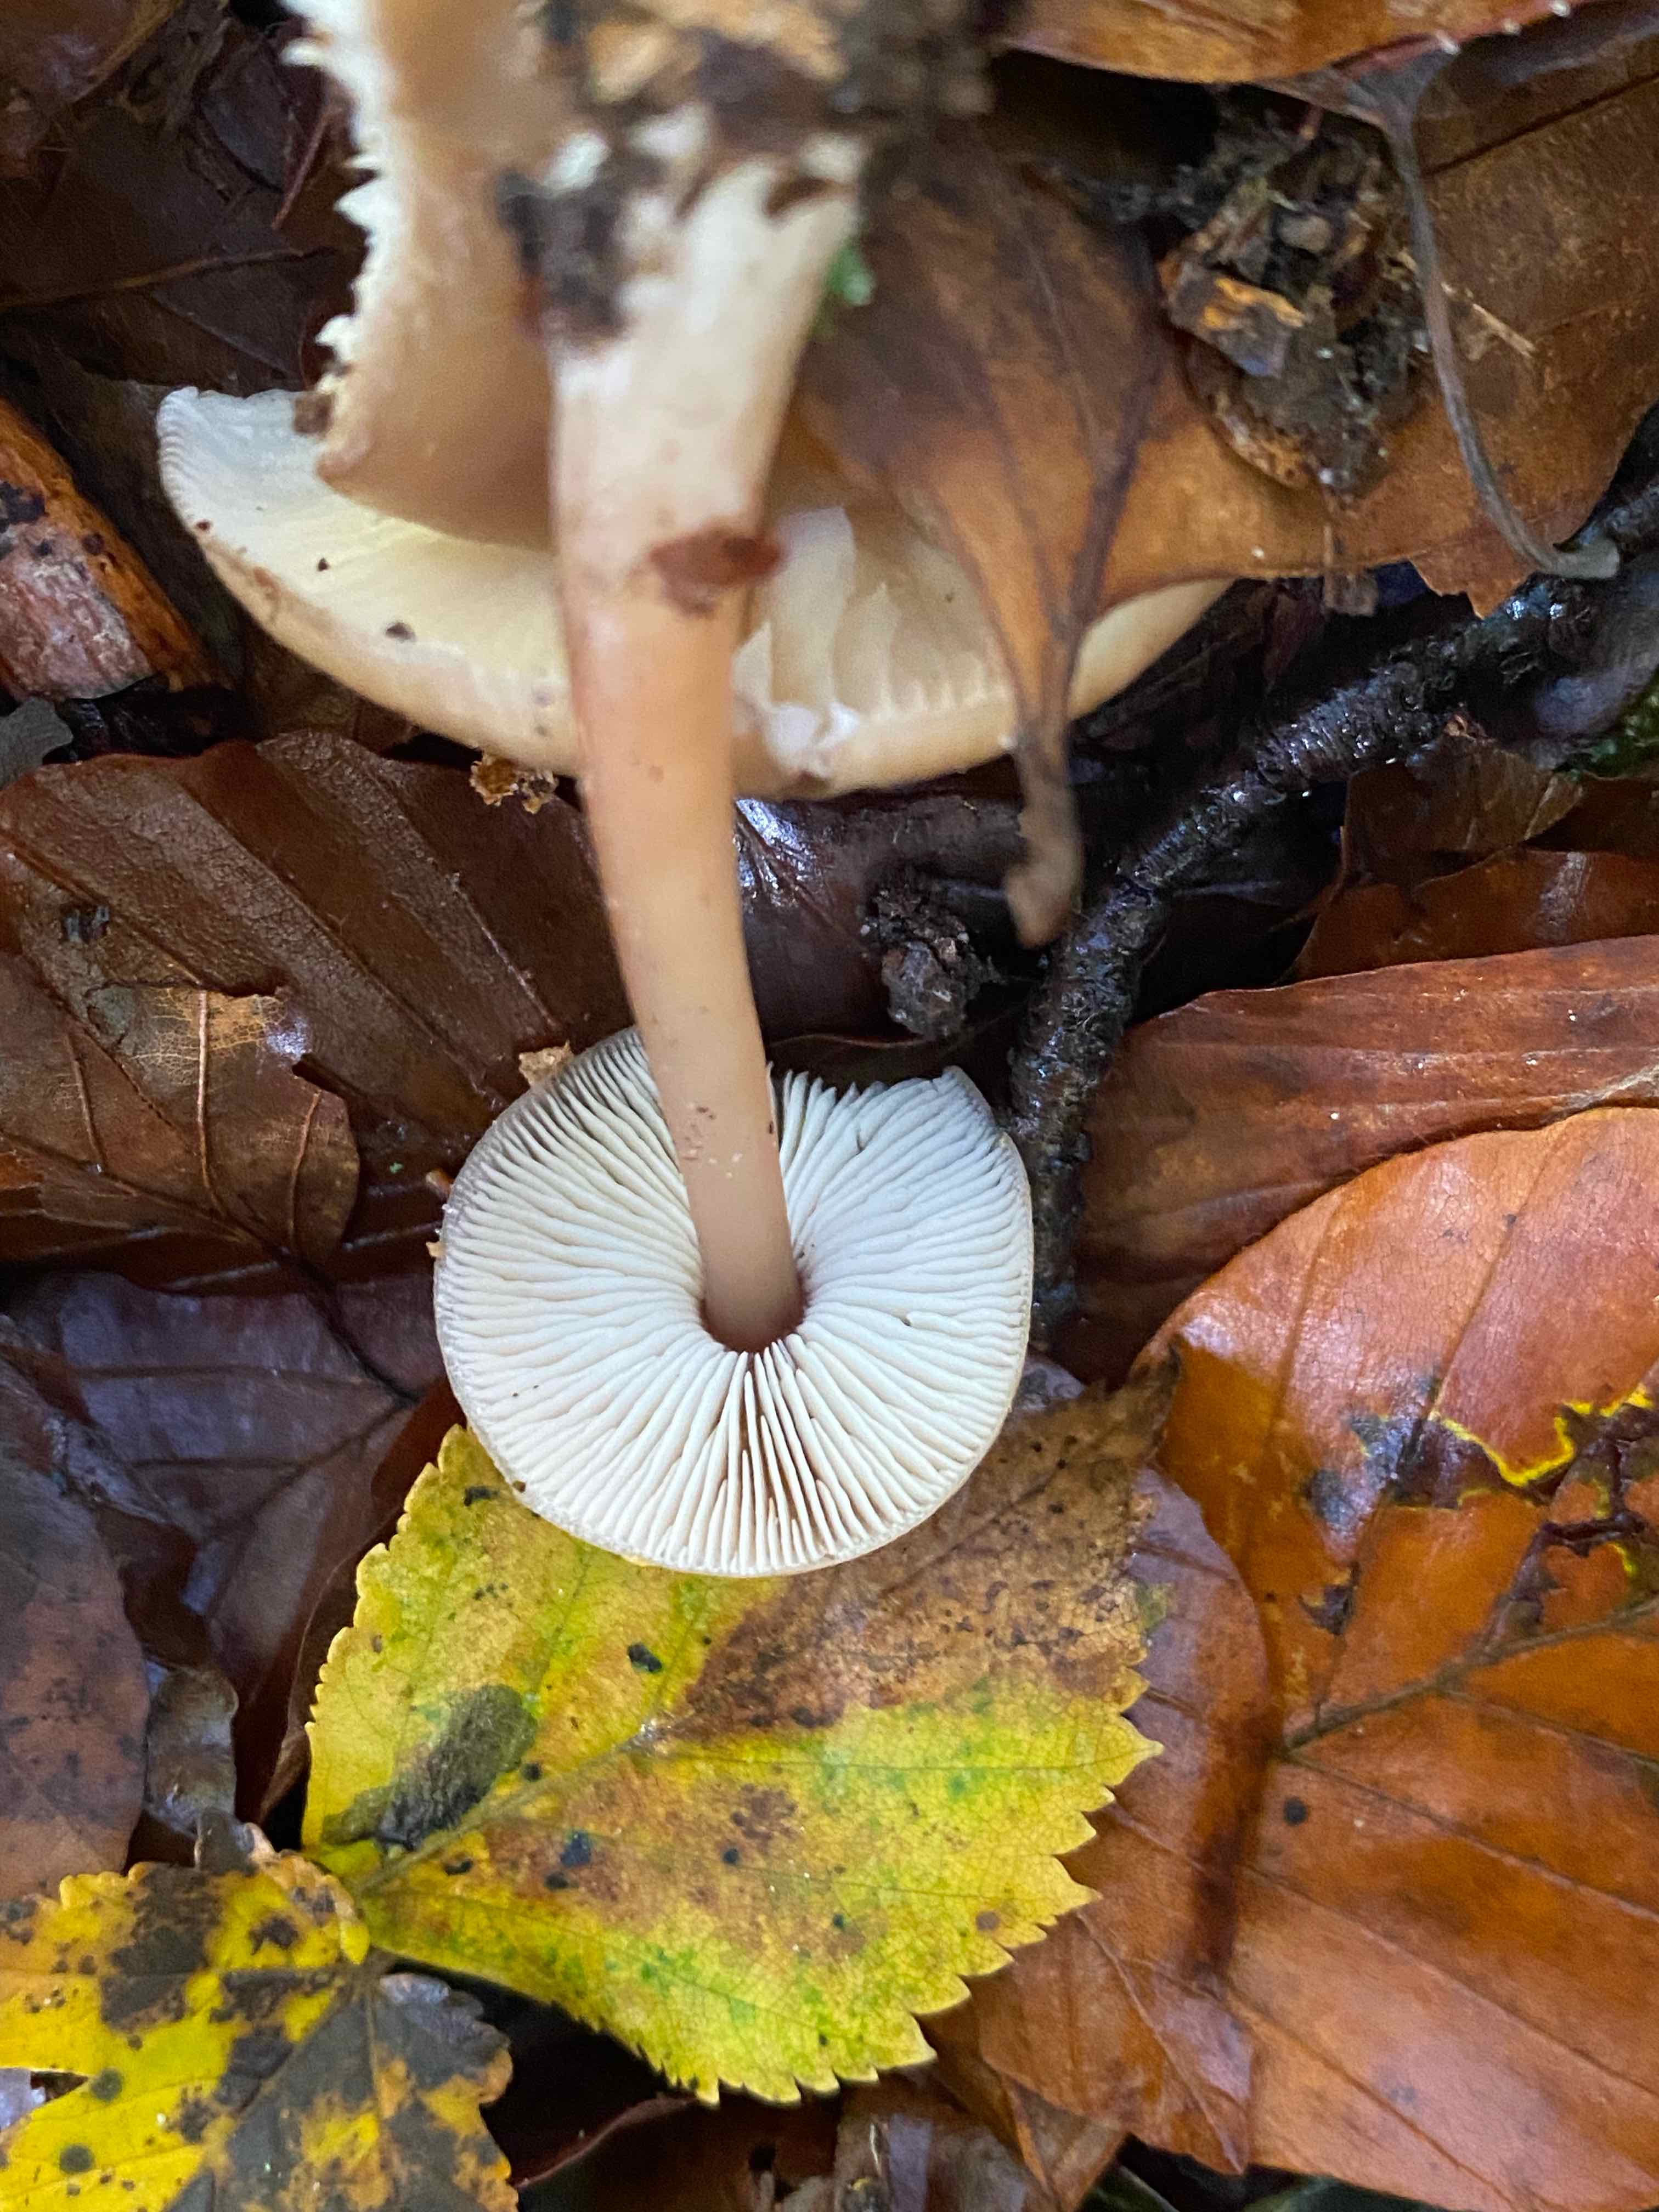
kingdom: Fungi
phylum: Basidiomycota
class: Agaricomycetes
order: Agaricales
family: Omphalotaceae
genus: Rhodocollybia
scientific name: Rhodocollybia asema
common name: horngrå fladhat
